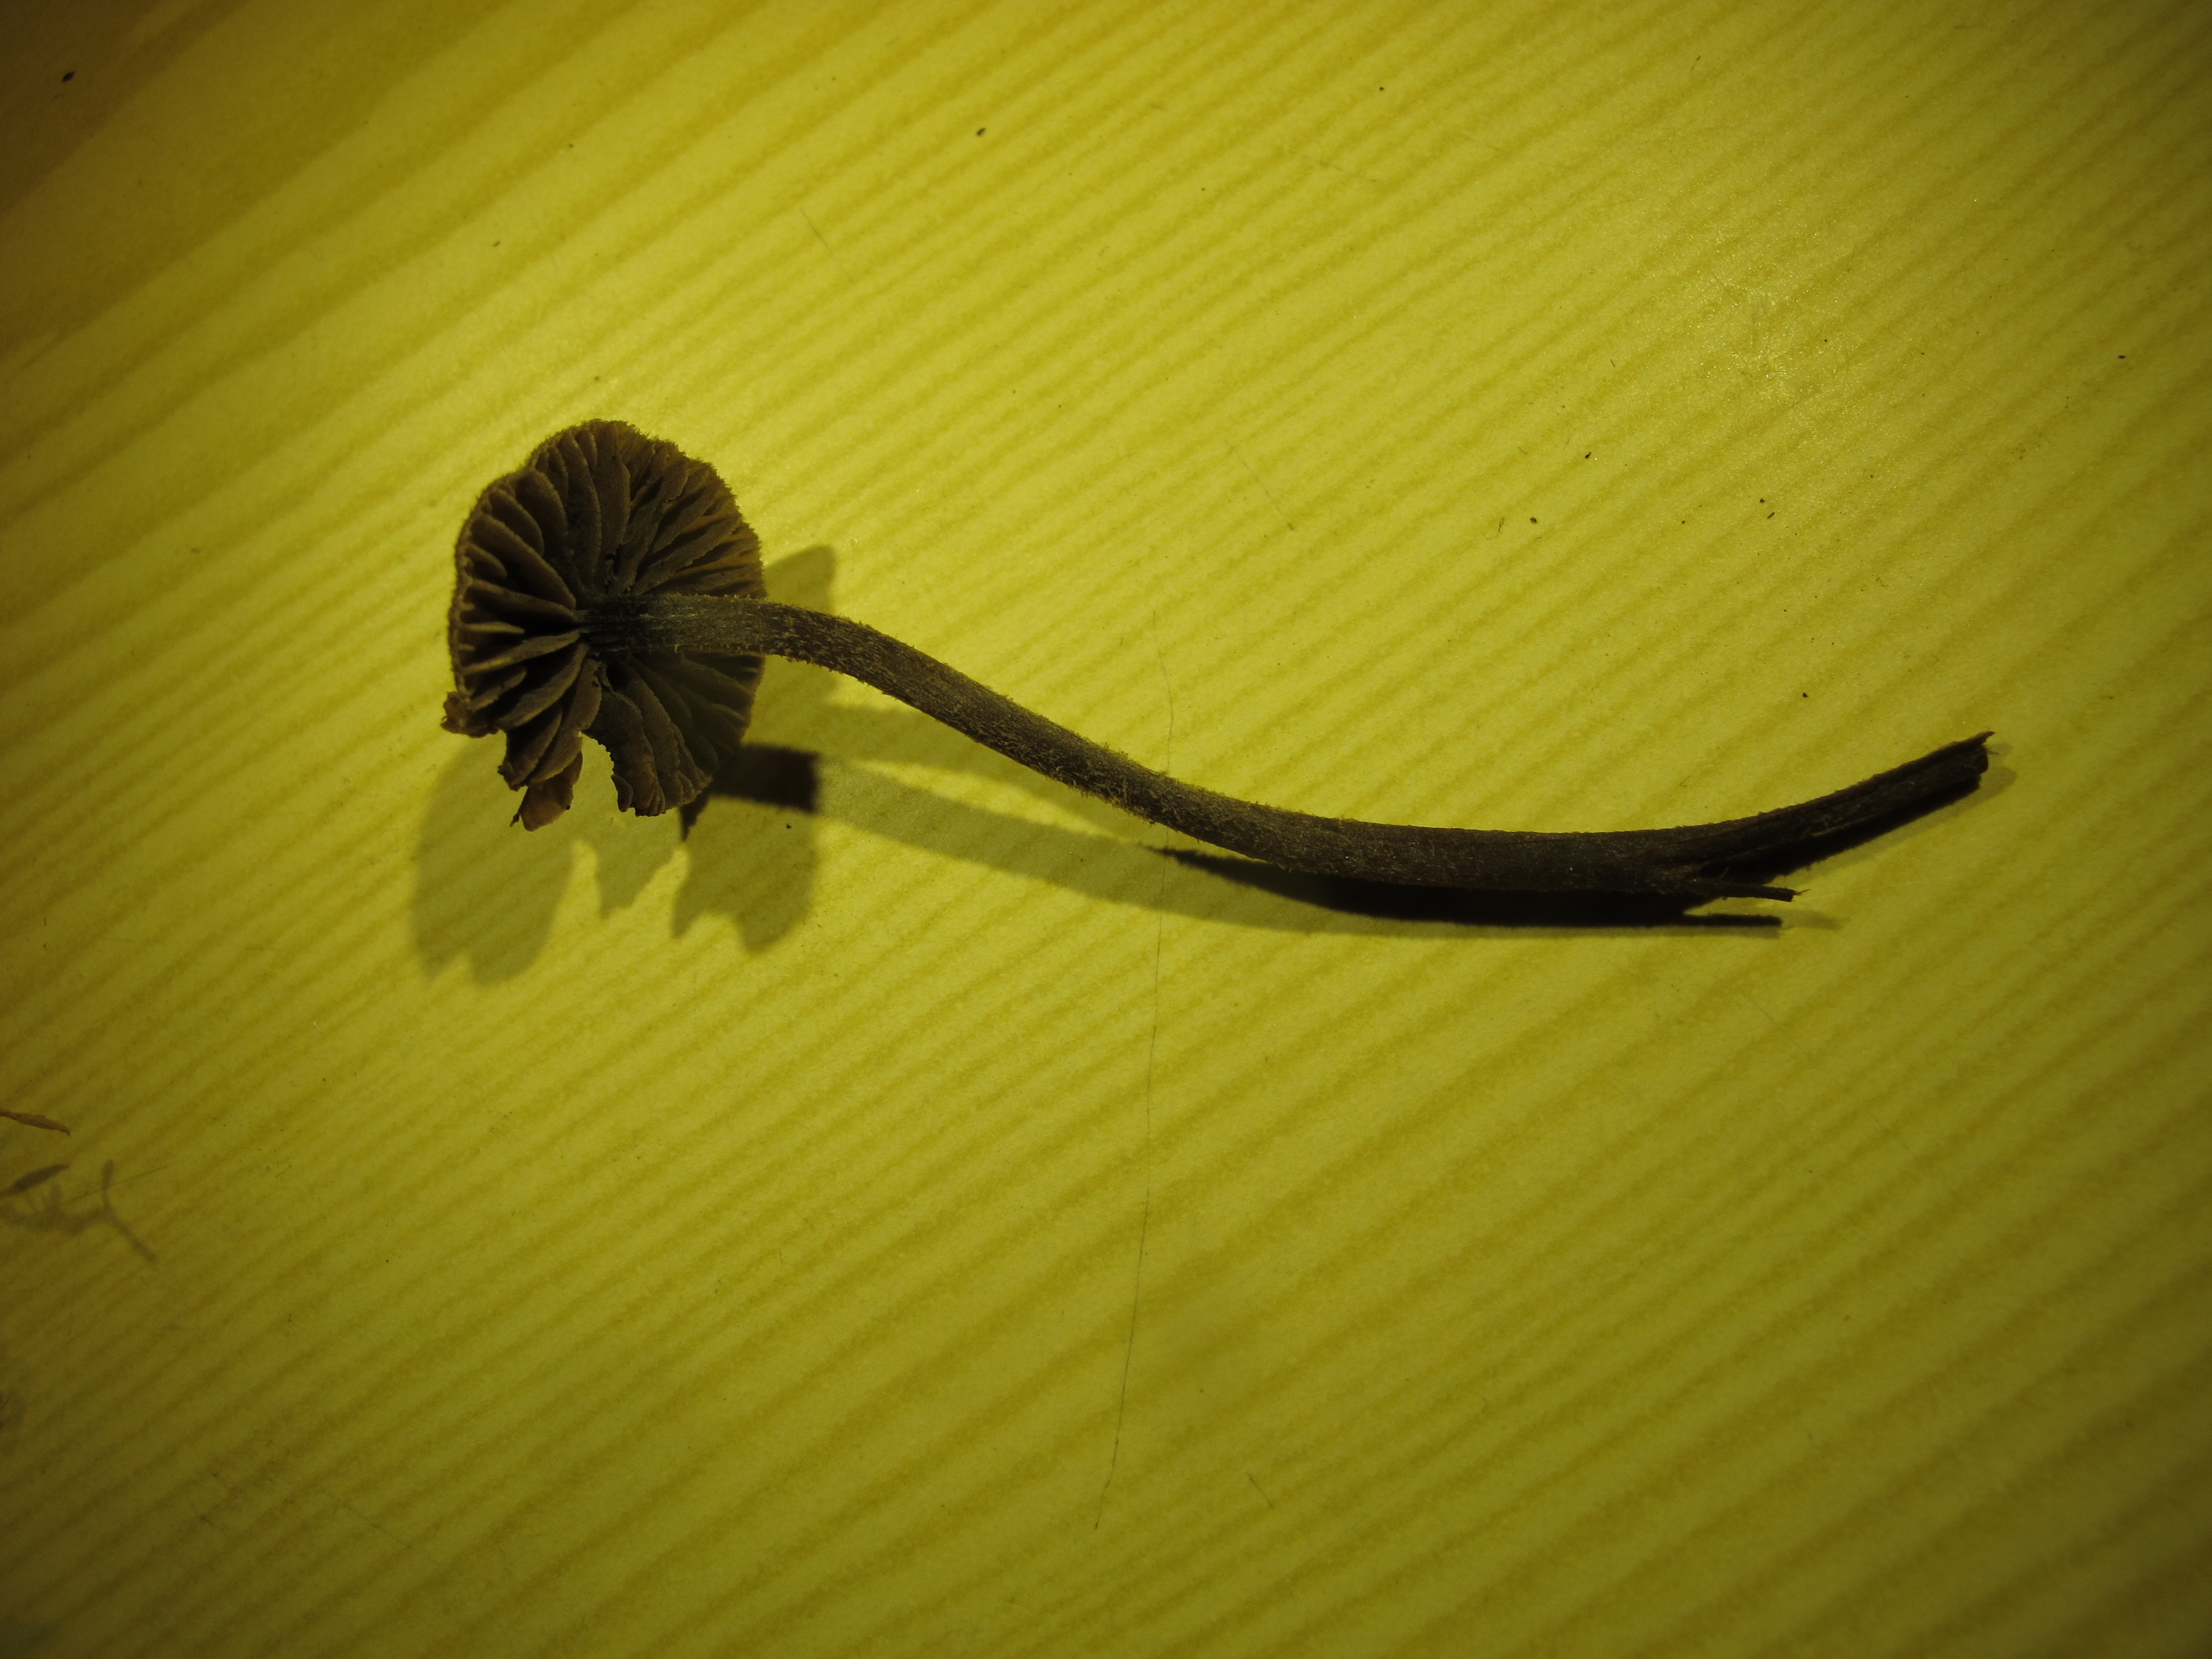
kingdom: Fungi
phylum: Basidiomycota
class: Agaricomycetes
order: Agaricales
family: Entolomataceae
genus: Entoloma
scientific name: Entoloma dysthales
